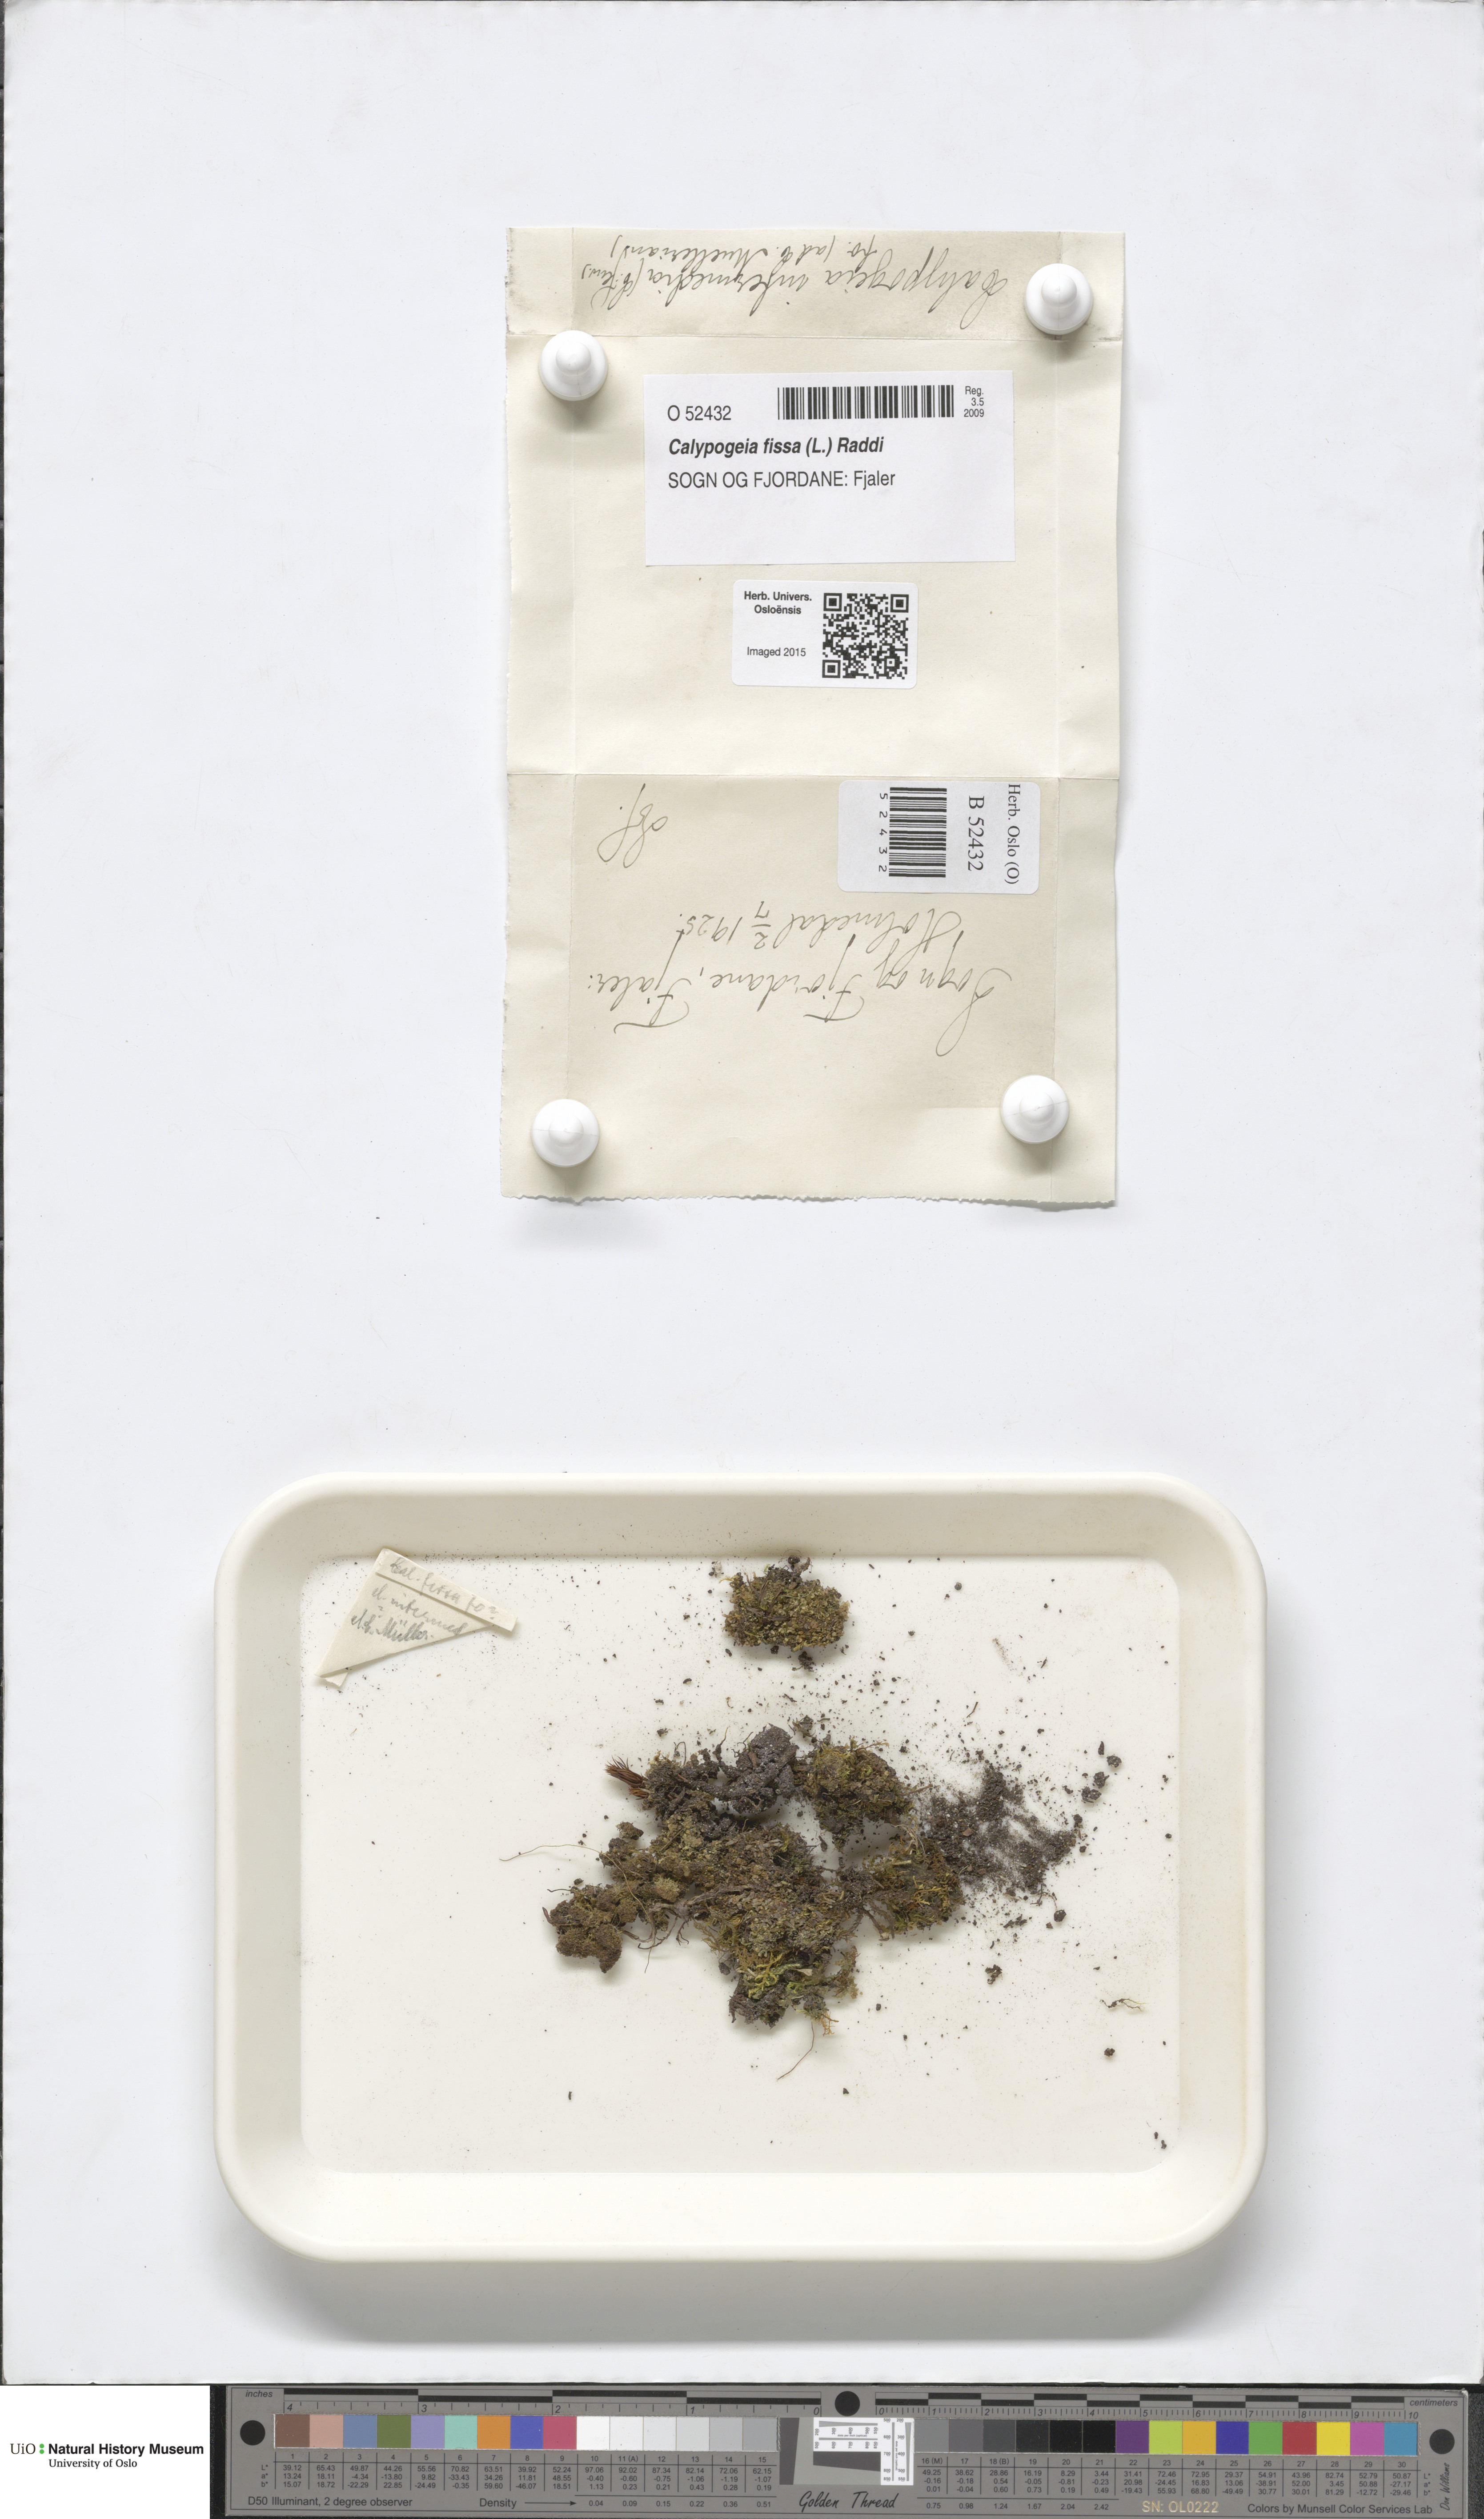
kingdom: Plantae
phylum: Marchantiophyta
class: Jungermanniopsida
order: Jungermanniales
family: Calypogeiaceae
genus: Calypogeia
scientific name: Calypogeia fissa
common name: Common pouchwort
